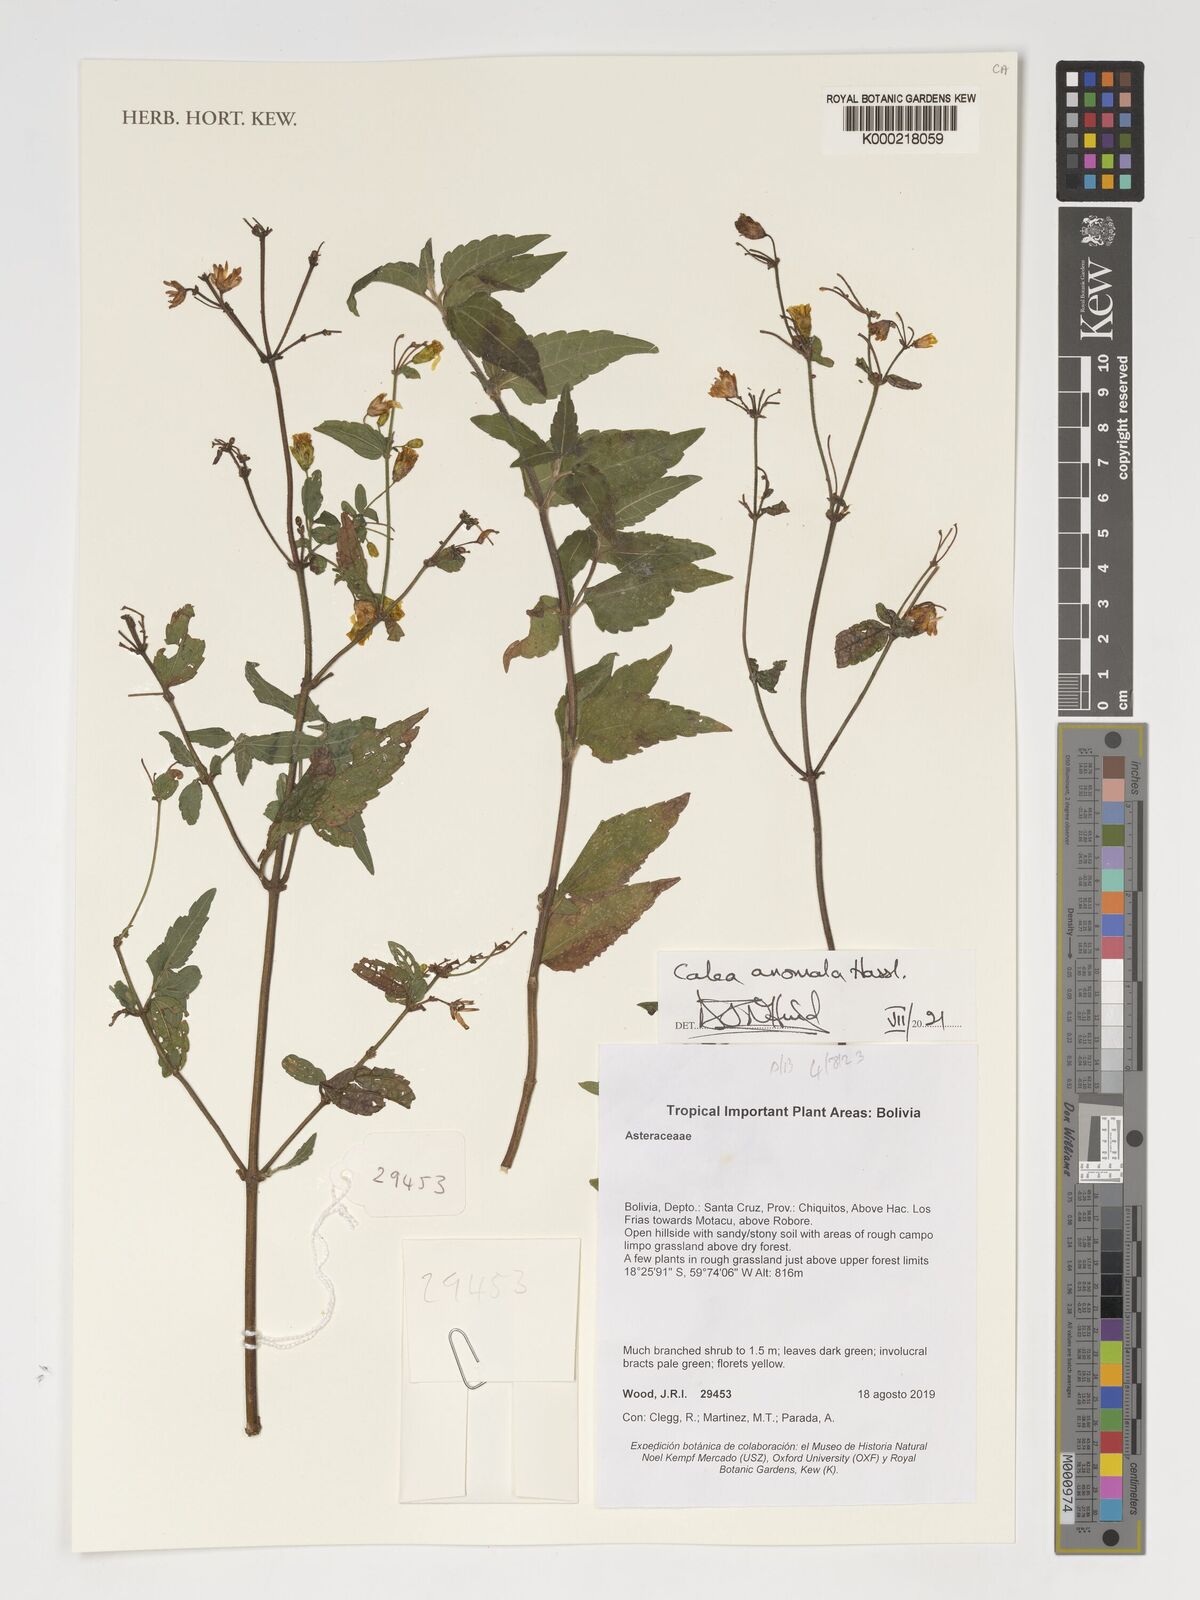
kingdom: Plantae
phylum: Tracheophyta
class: Magnoliopsida
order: Asterales
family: Asteraceae
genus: Calea
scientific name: Calea anomala
